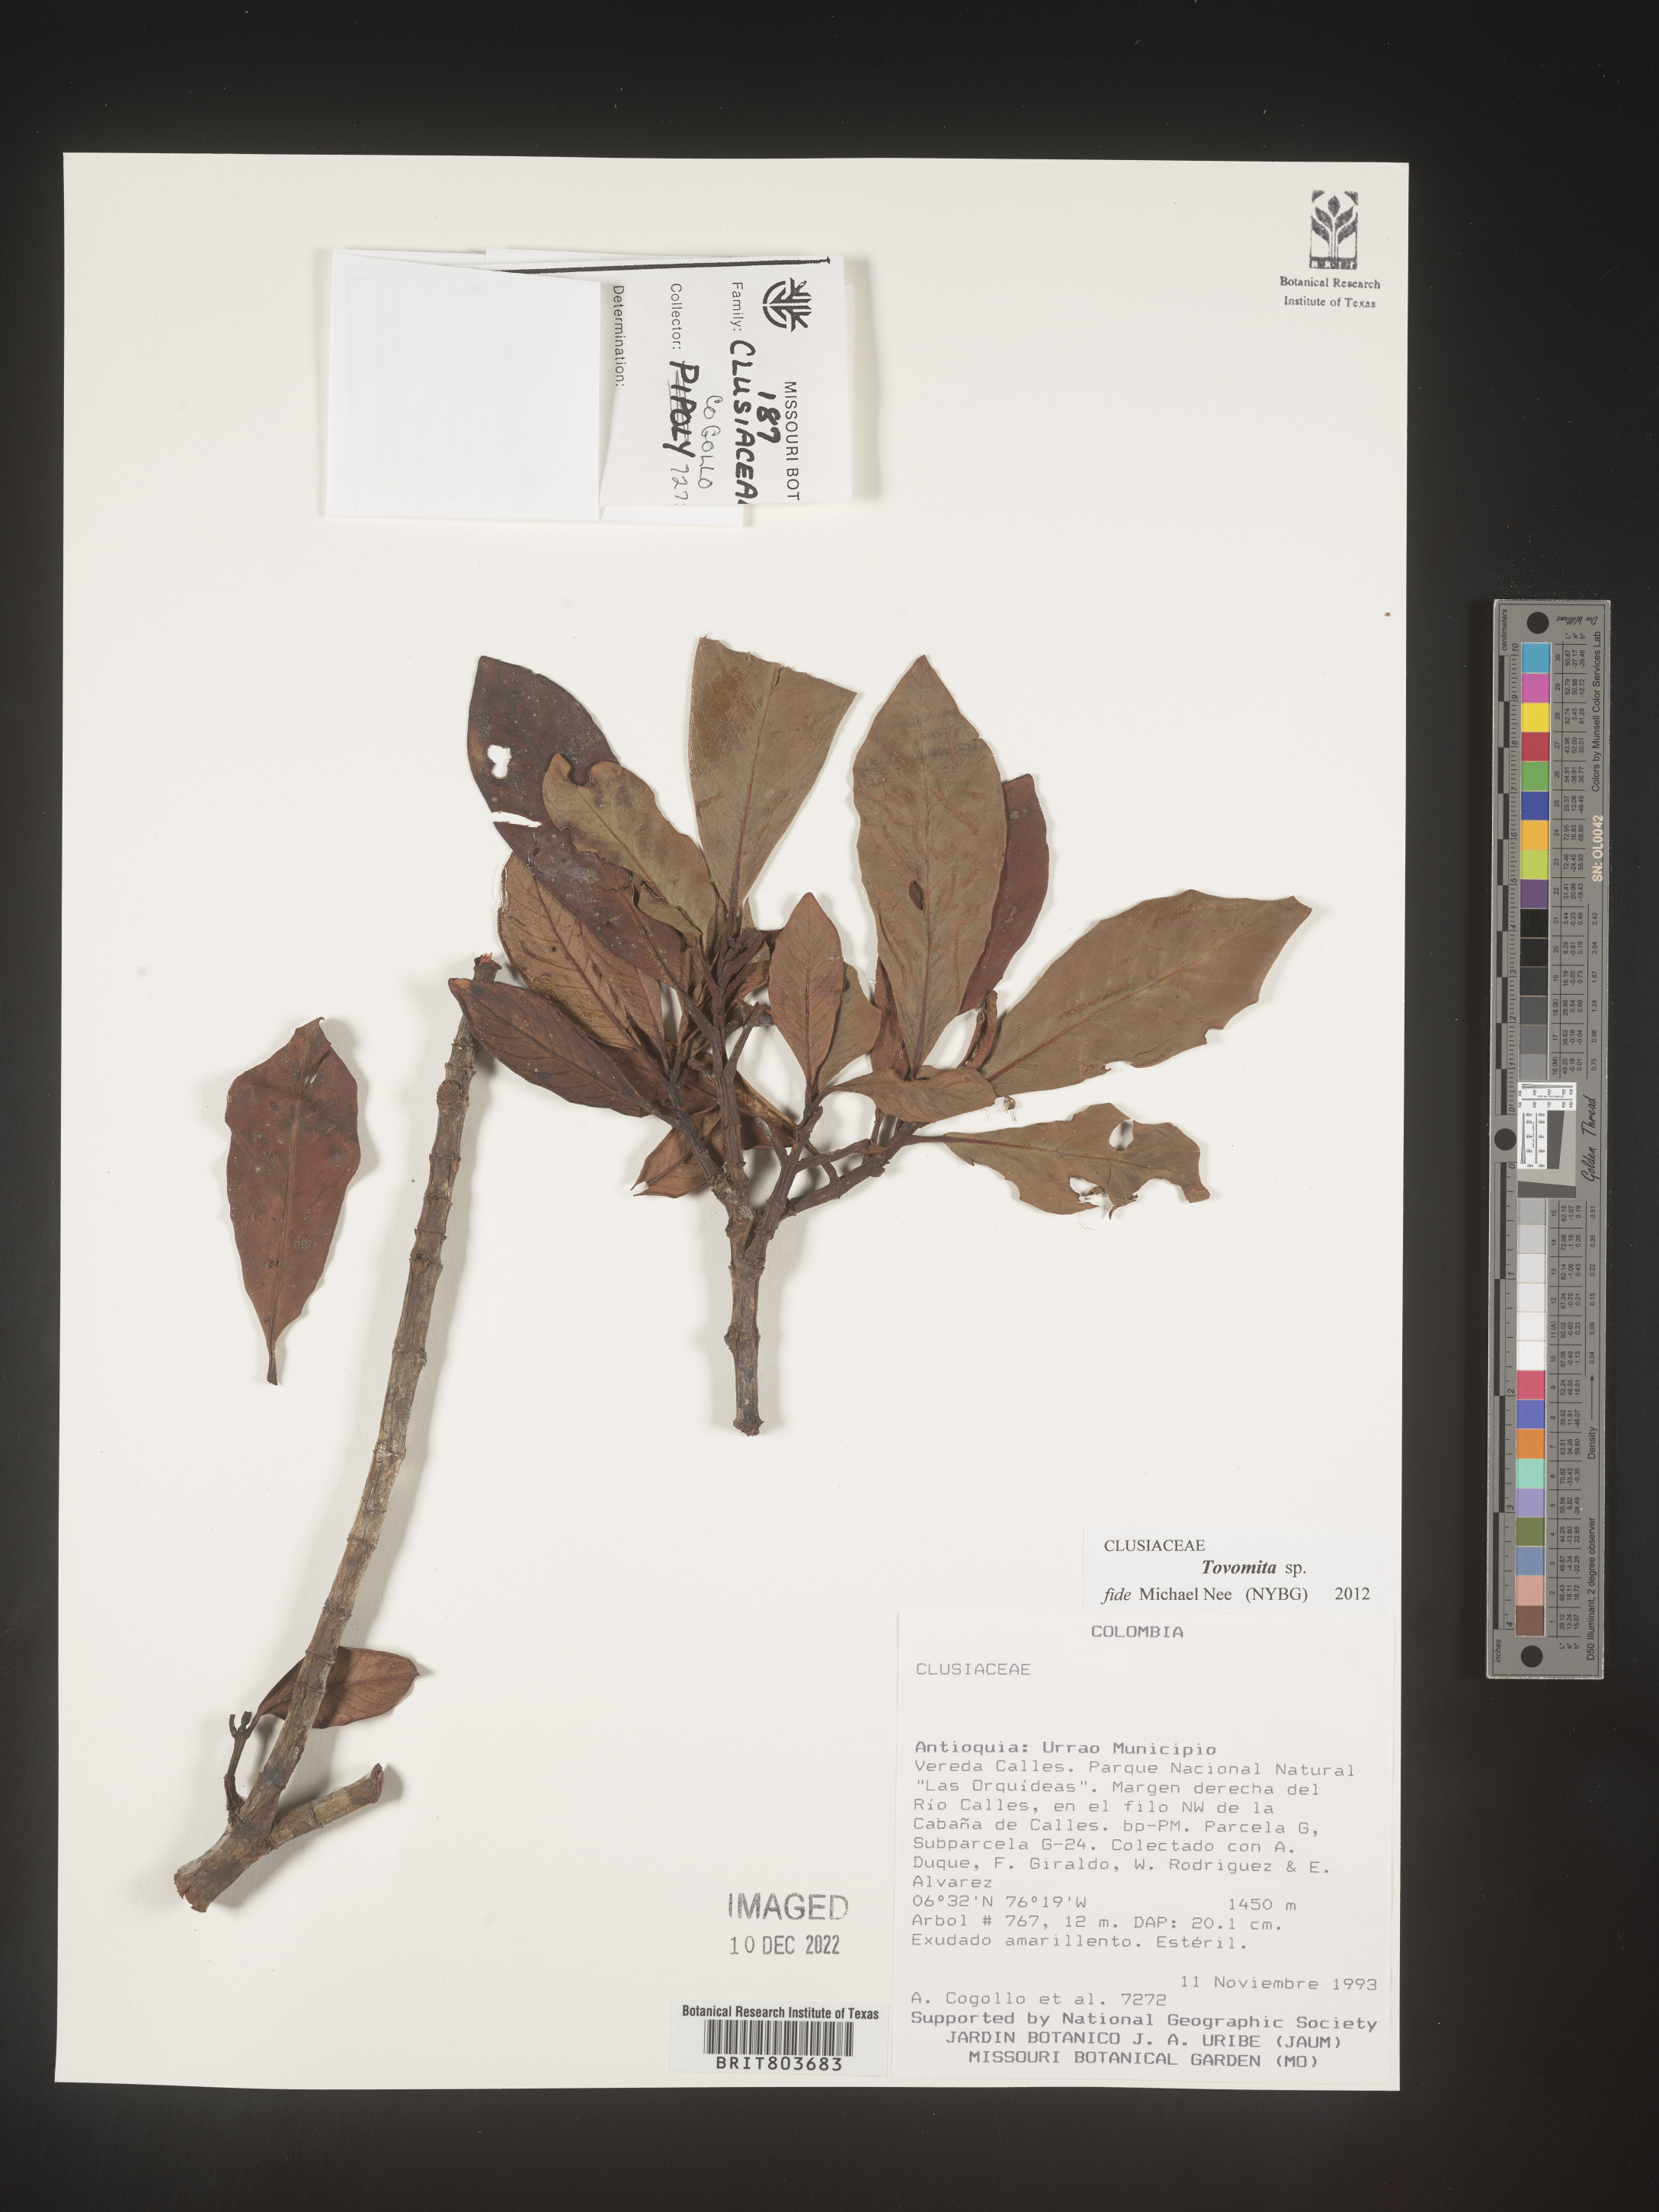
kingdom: Plantae
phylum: Tracheophyta
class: Magnoliopsida
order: Malpighiales
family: Clusiaceae
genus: Tovomita
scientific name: Tovomita
